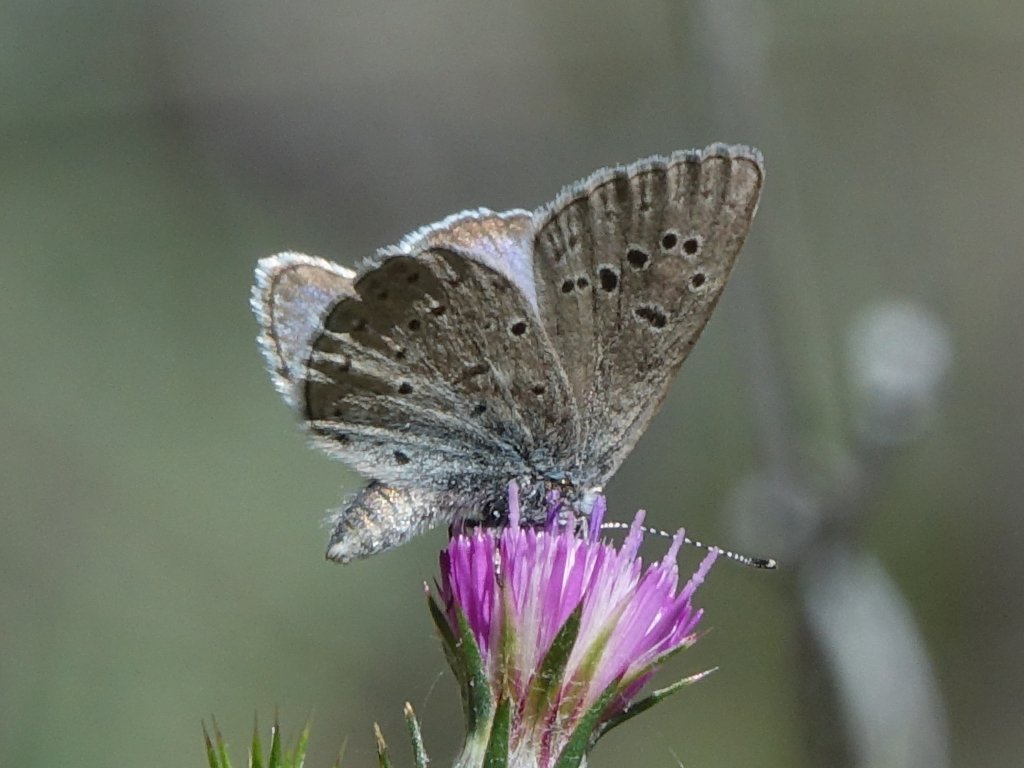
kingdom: Animalia
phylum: Arthropoda
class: Insecta
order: Lepidoptera
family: Lycaenidae
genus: Icaricia
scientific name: Icaricia icarioides
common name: Boisduval's Blue
